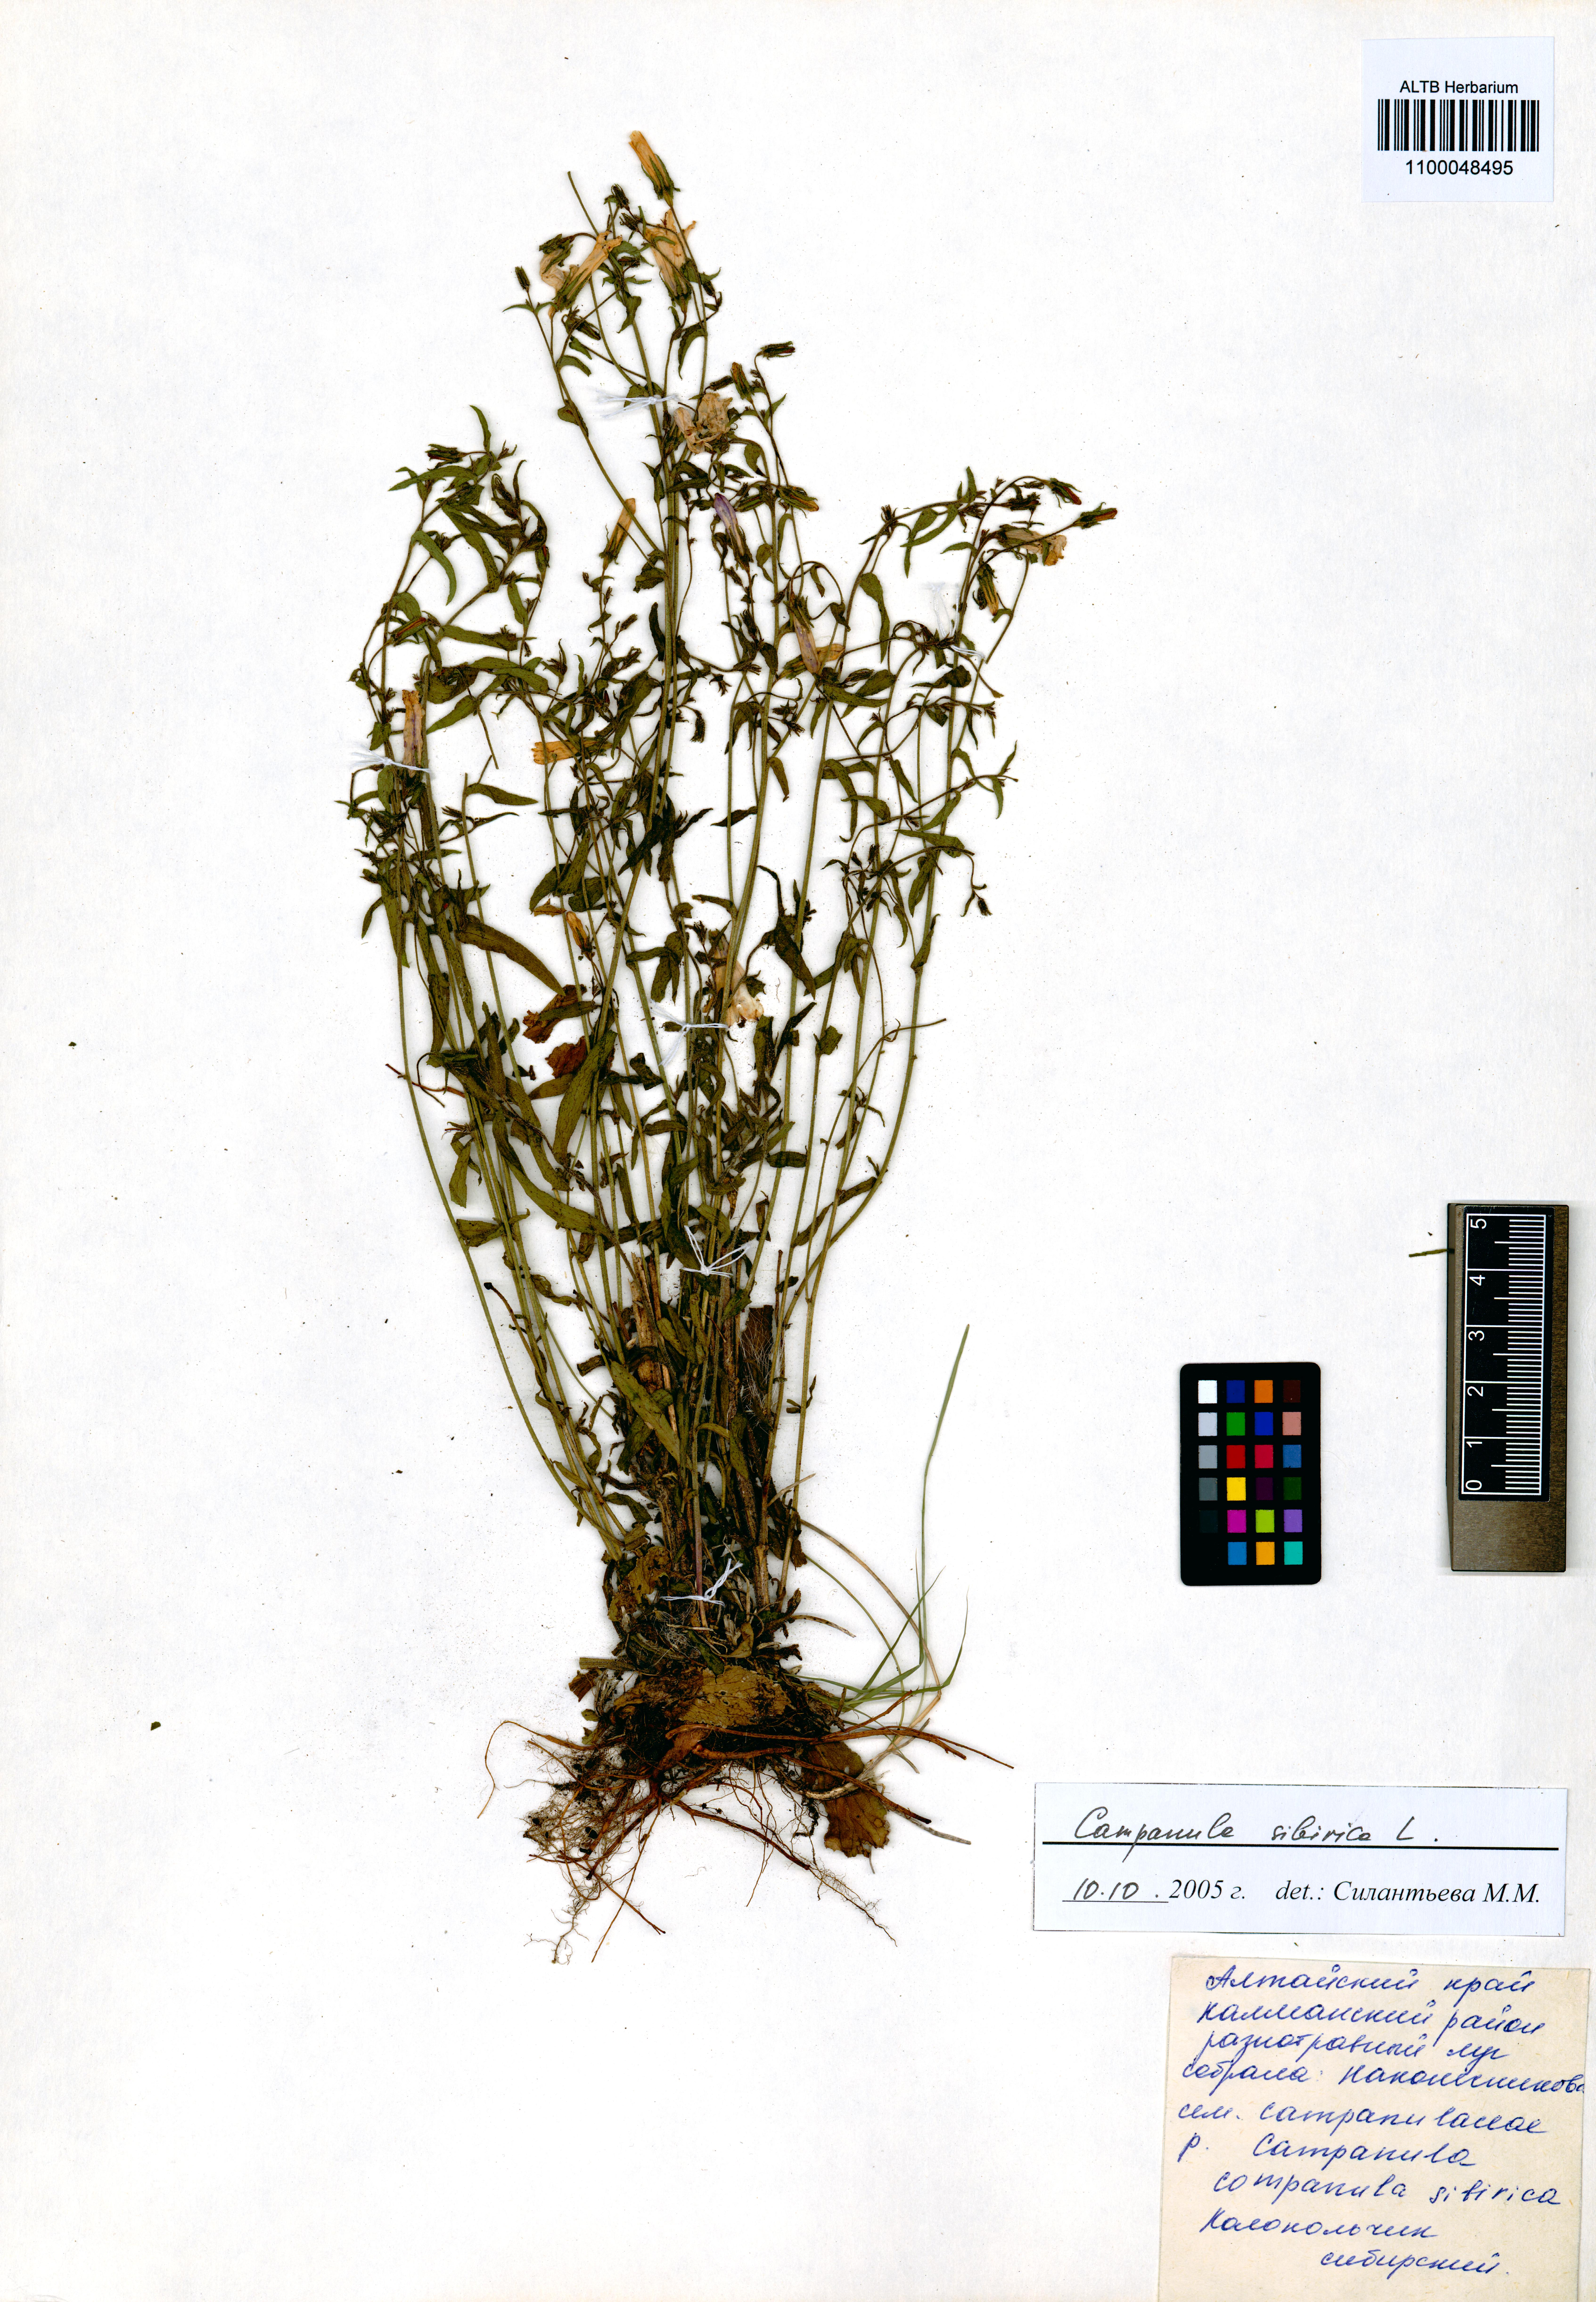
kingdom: Plantae
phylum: Tracheophyta
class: Magnoliopsida
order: Asterales
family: Campanulaceae
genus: Campanula
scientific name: Campanula sibirica
